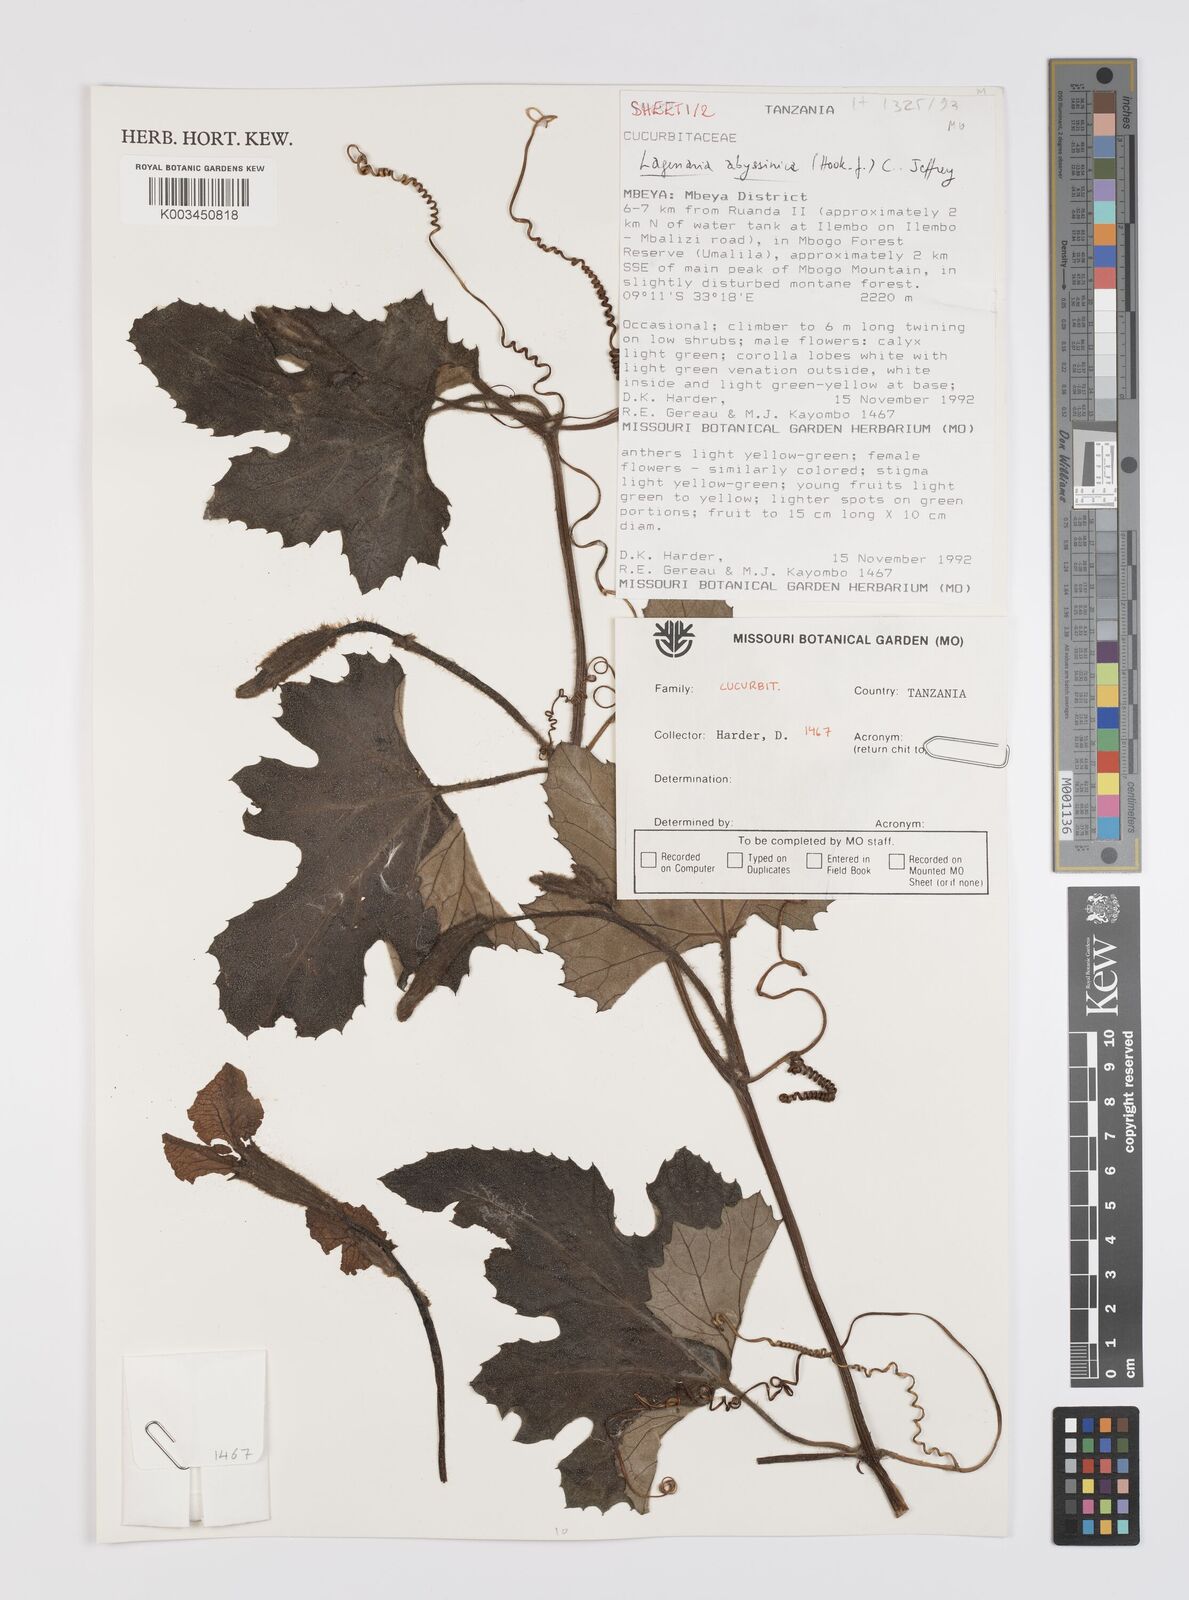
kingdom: Plantae
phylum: Tracheophyta
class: Magnoliopsida
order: Cucurbitales
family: Cucurbitaceae
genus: Lagenaria
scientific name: Lagenaria abyssinica
